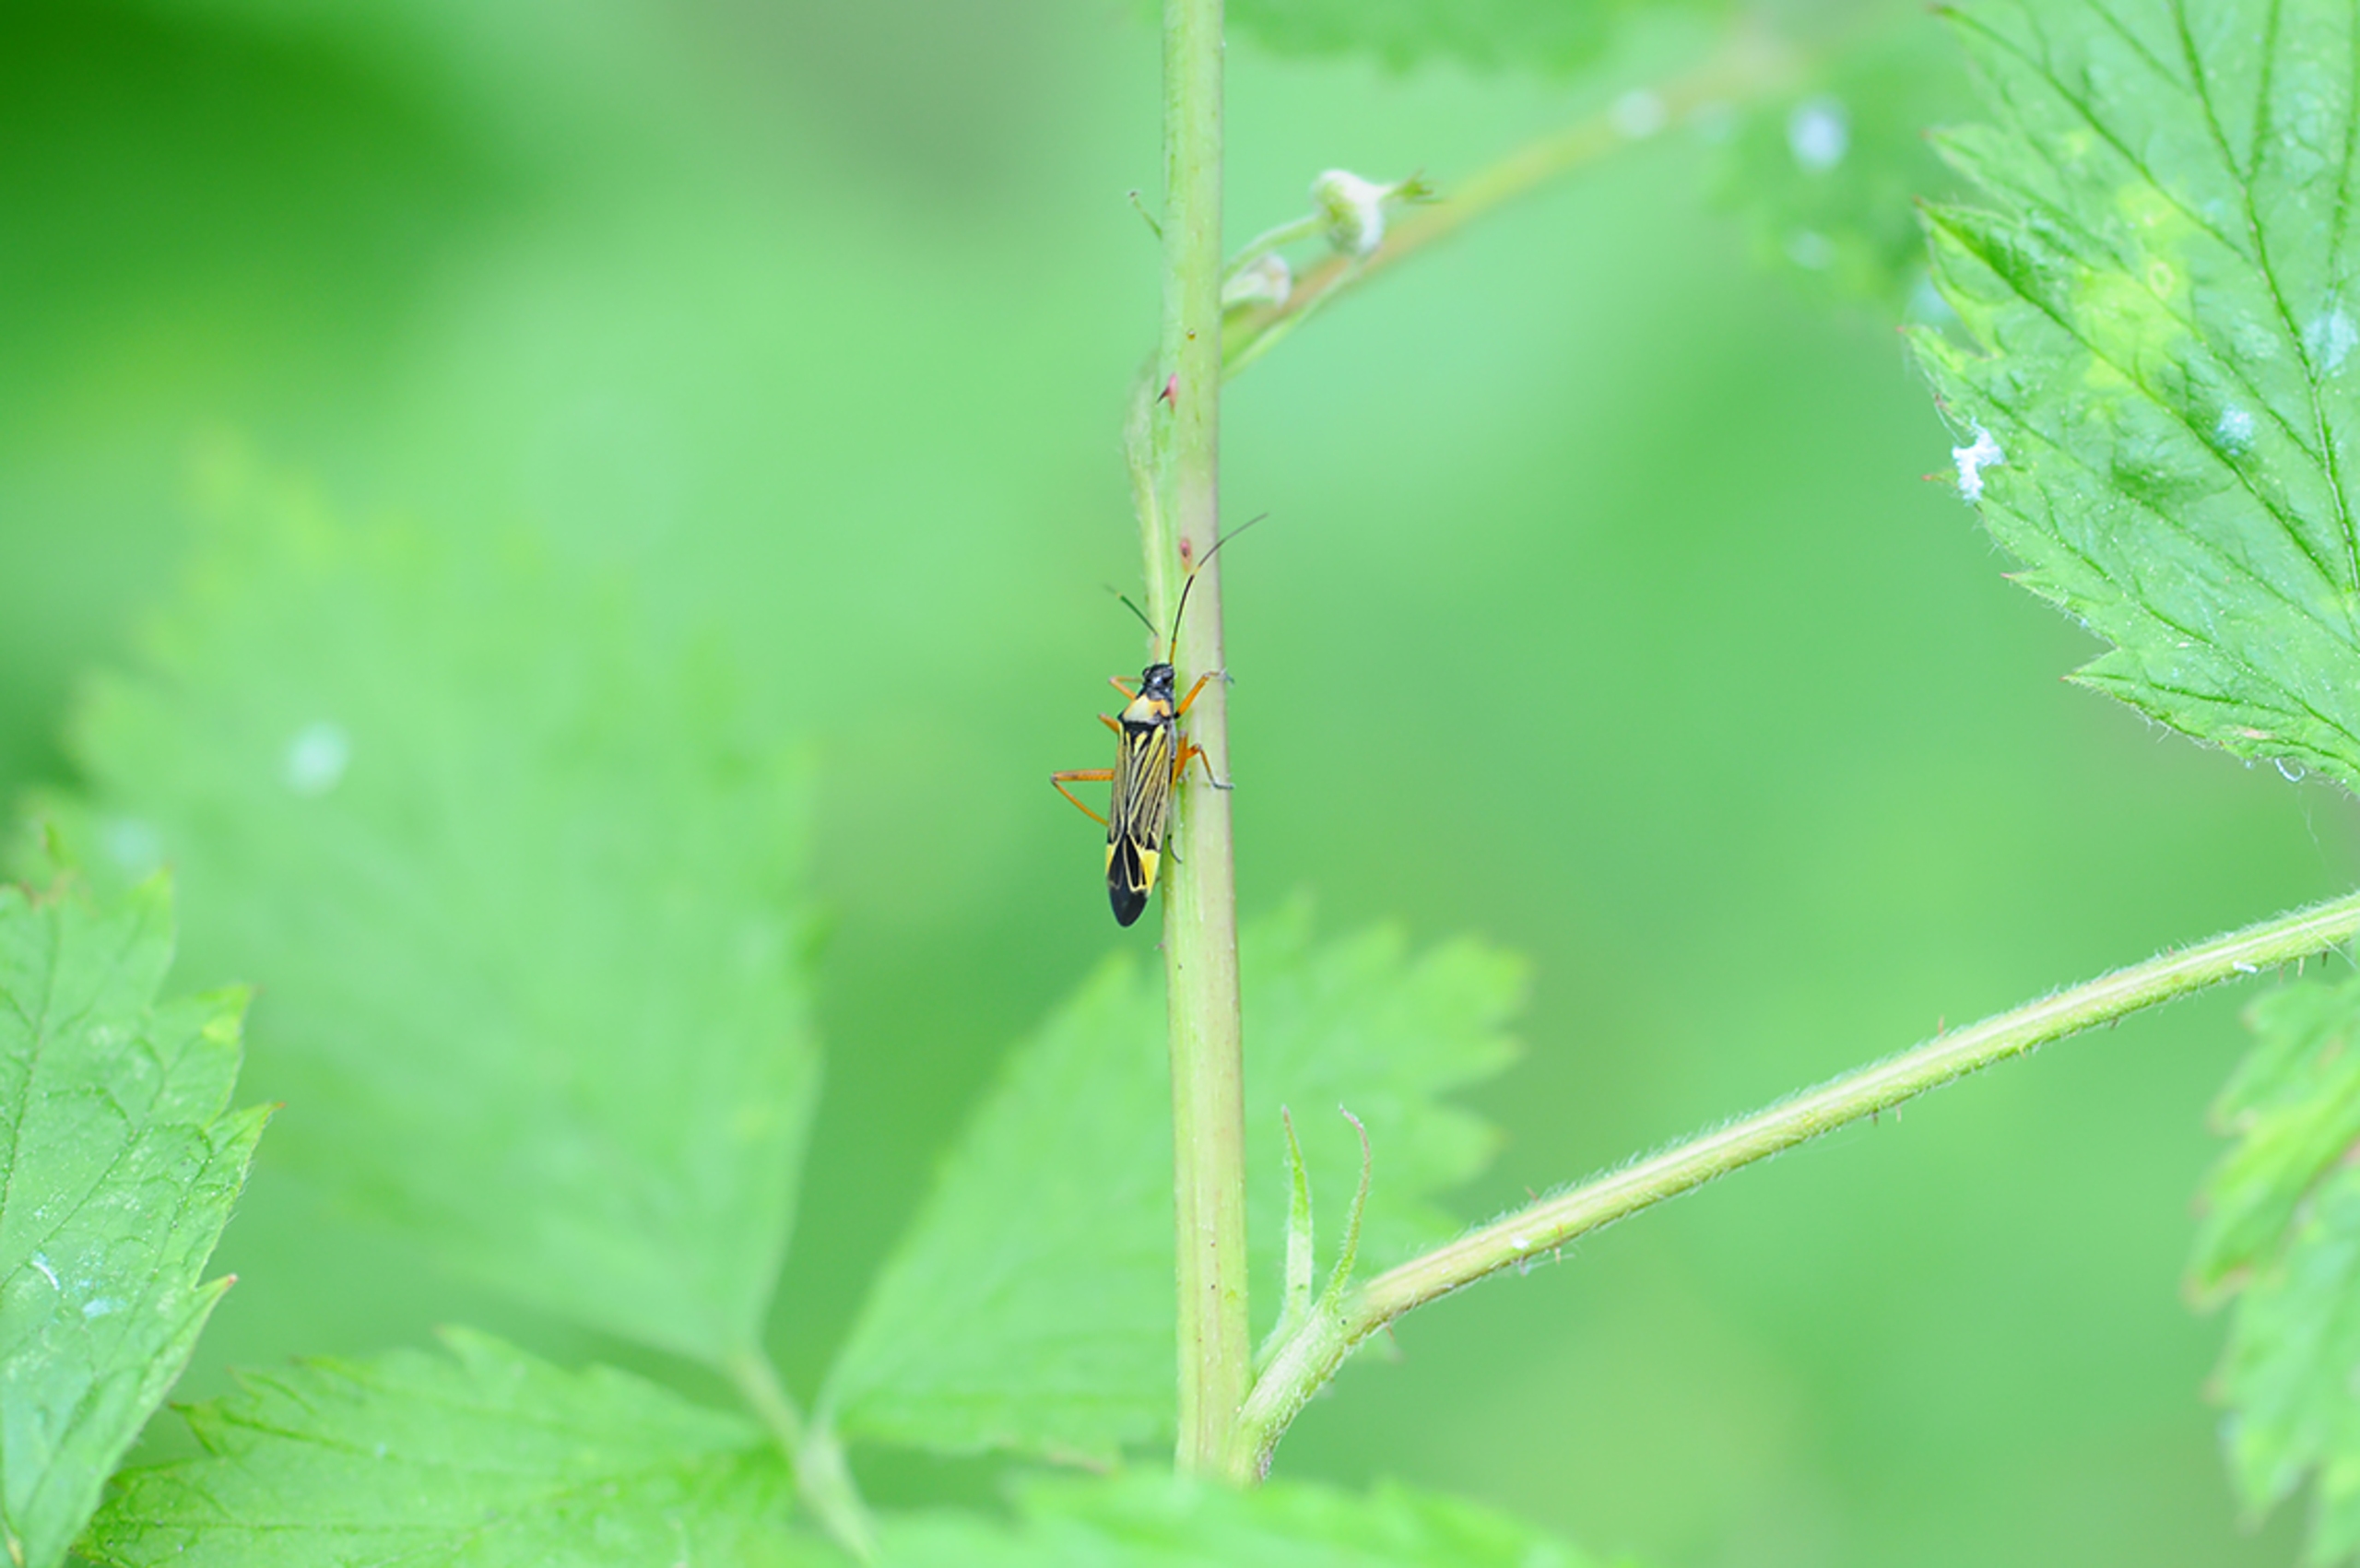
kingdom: Animalia
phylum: Arthropoda
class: Insecta
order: Hemiptera
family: Miridae
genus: Miris
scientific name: Miris striatus
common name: Gulstribet egetæge
